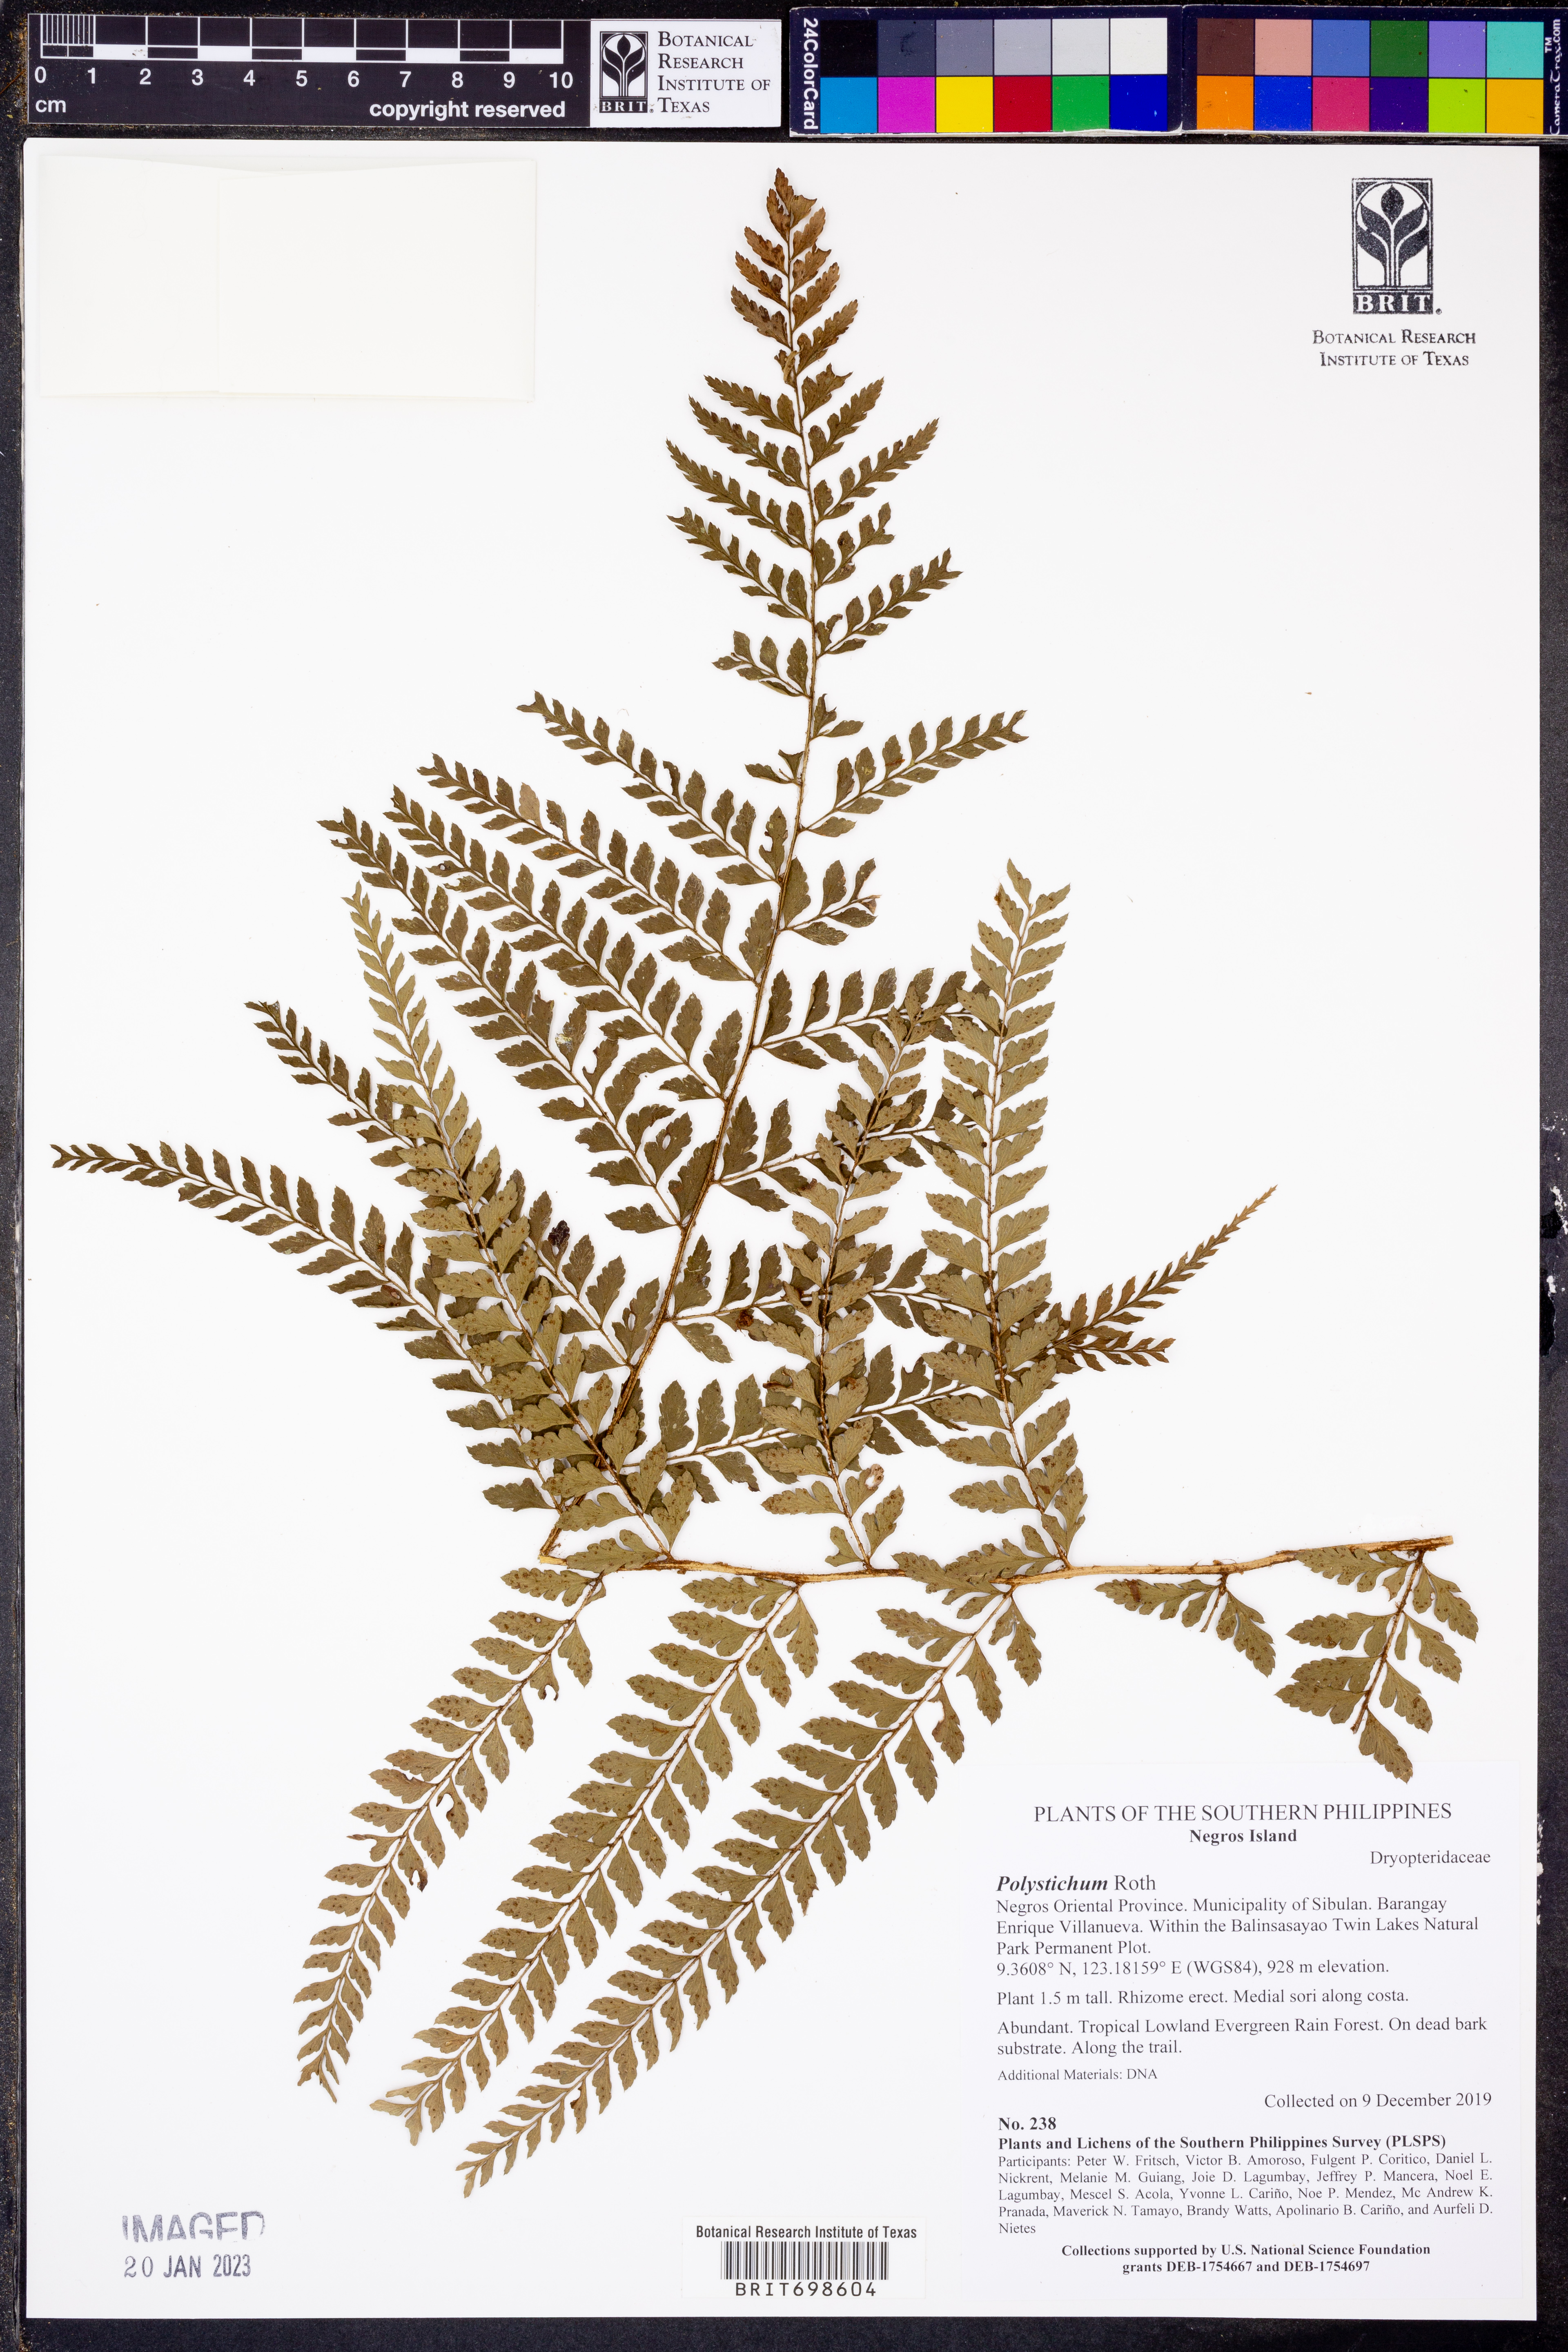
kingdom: Plantae
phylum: Tracheophyta
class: Polypodiopsida
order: Polypodiales
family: Dryopteridaceae
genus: Polystichum
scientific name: Polystichum
